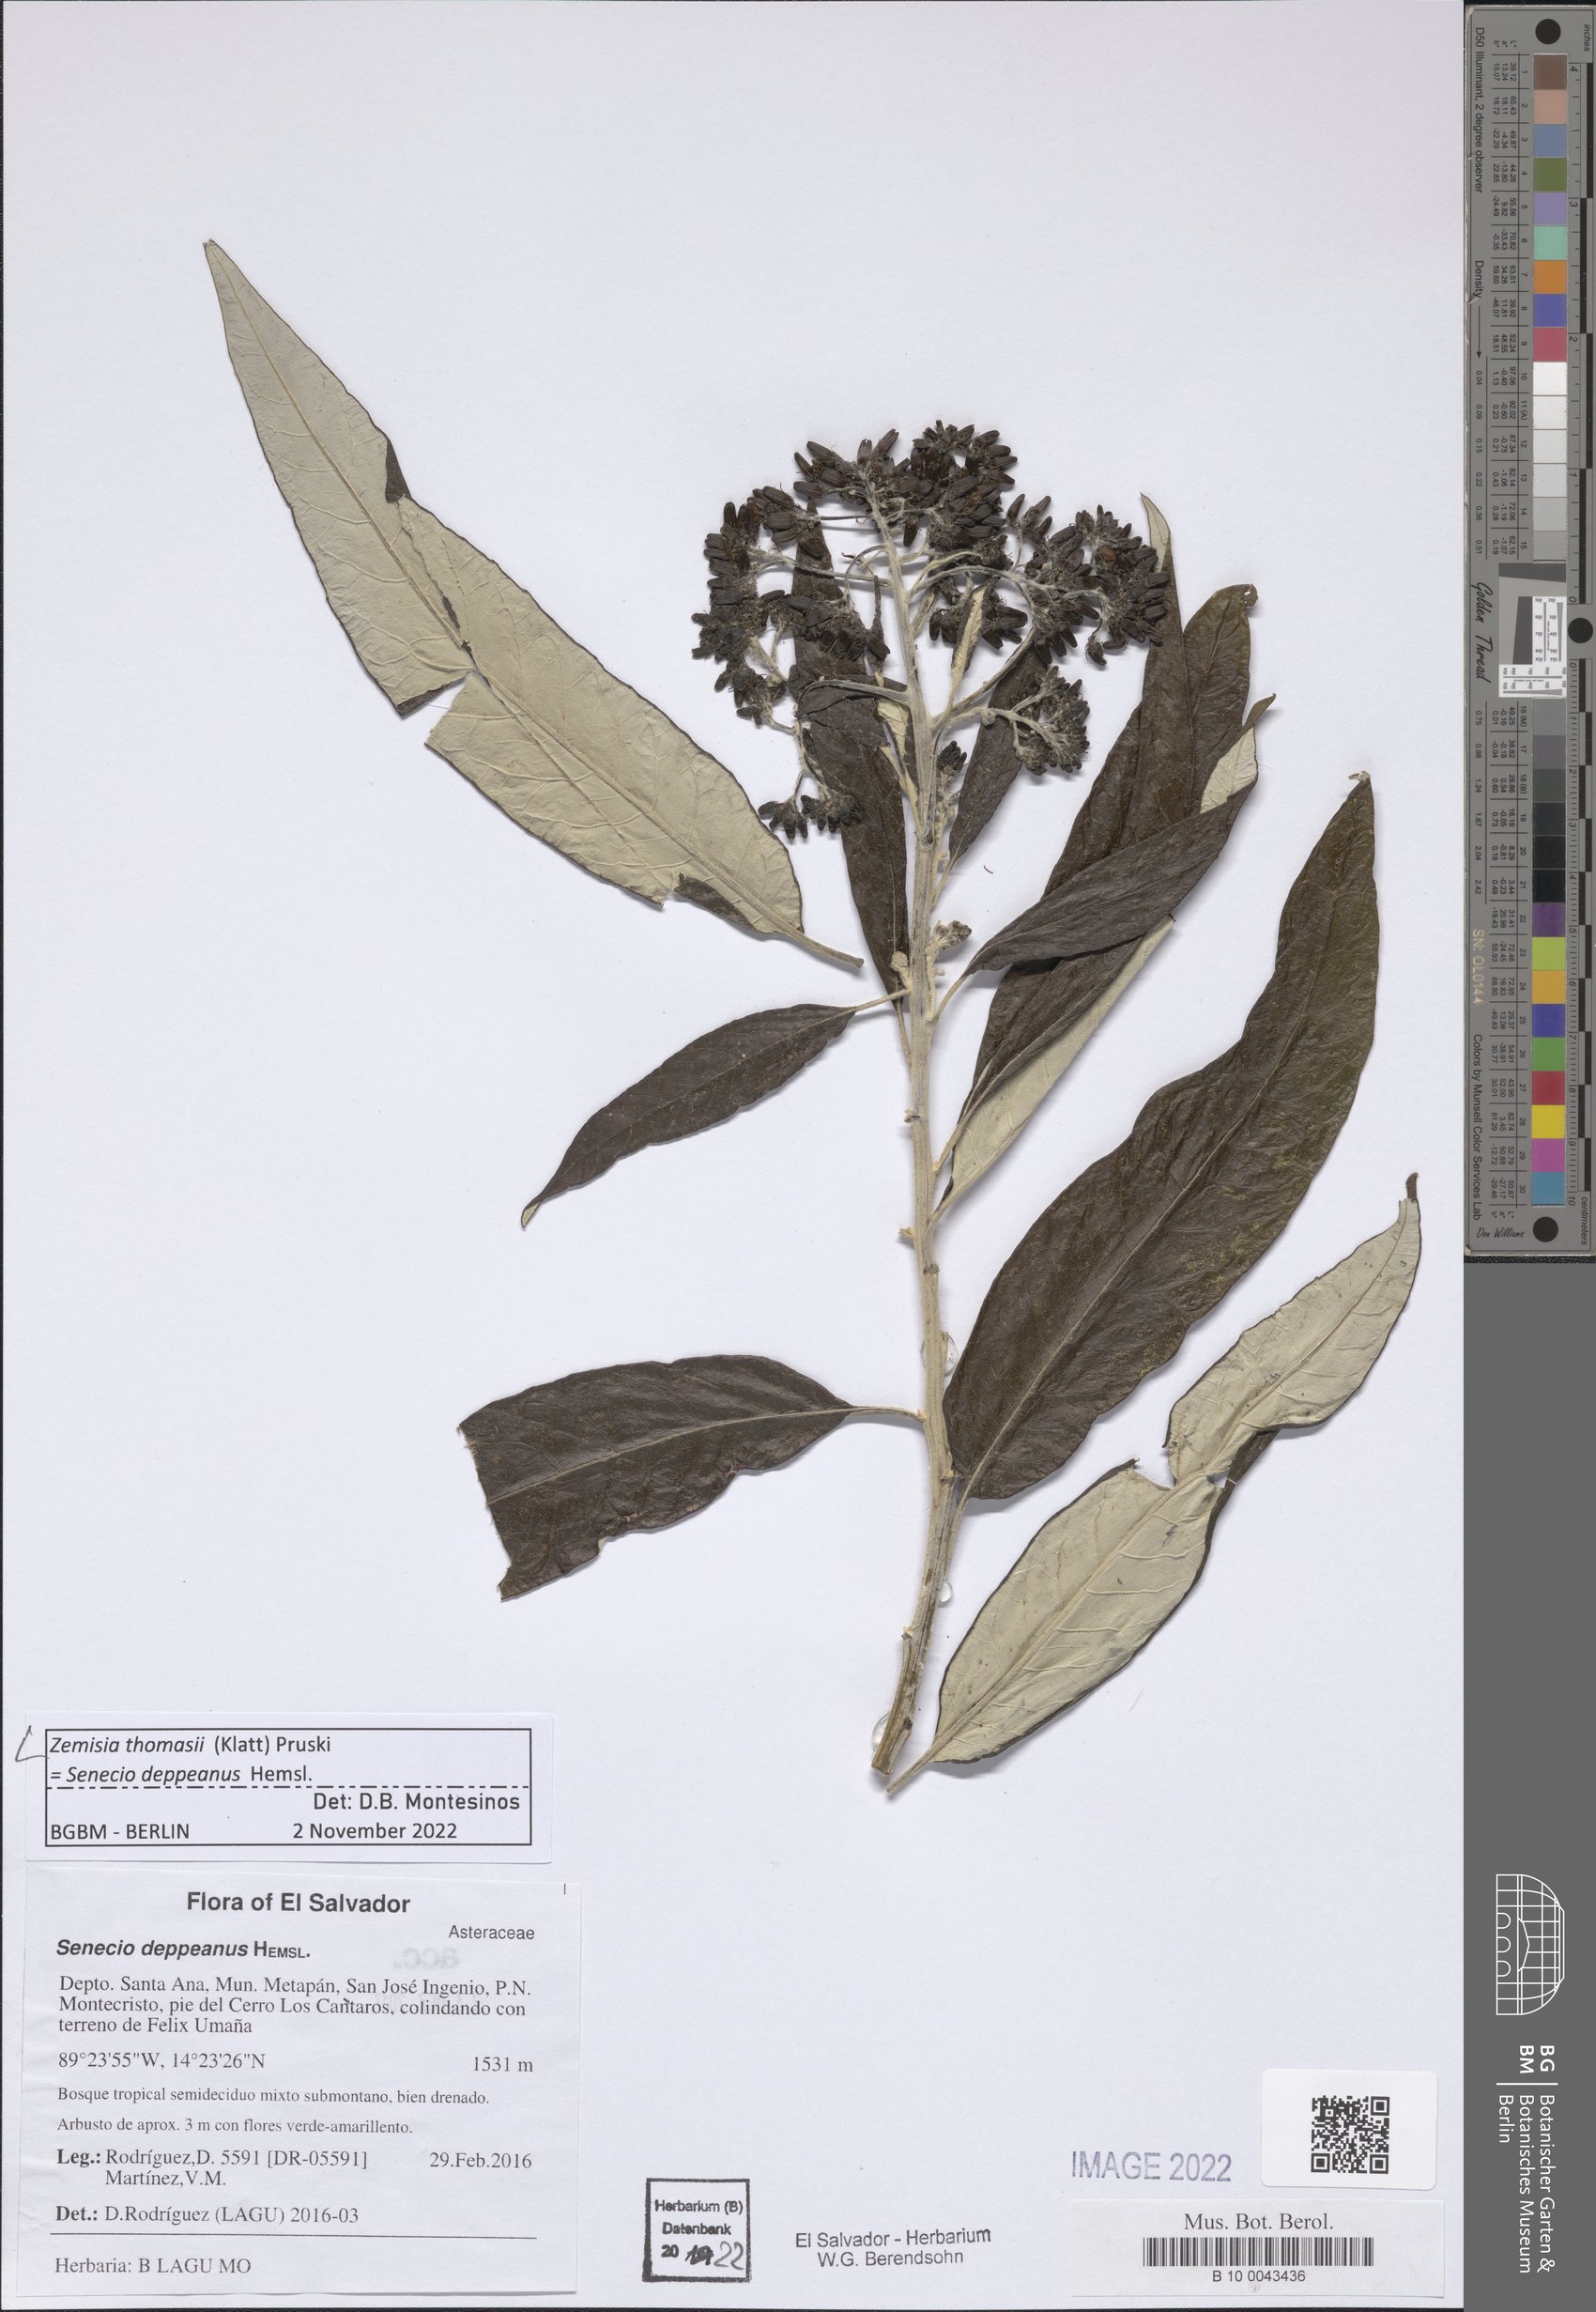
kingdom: Plantae
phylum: Tracheophyta
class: Magnoliopsida
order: Asterales
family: Asteraceae
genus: Zemisia
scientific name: Zemisia thomasii
